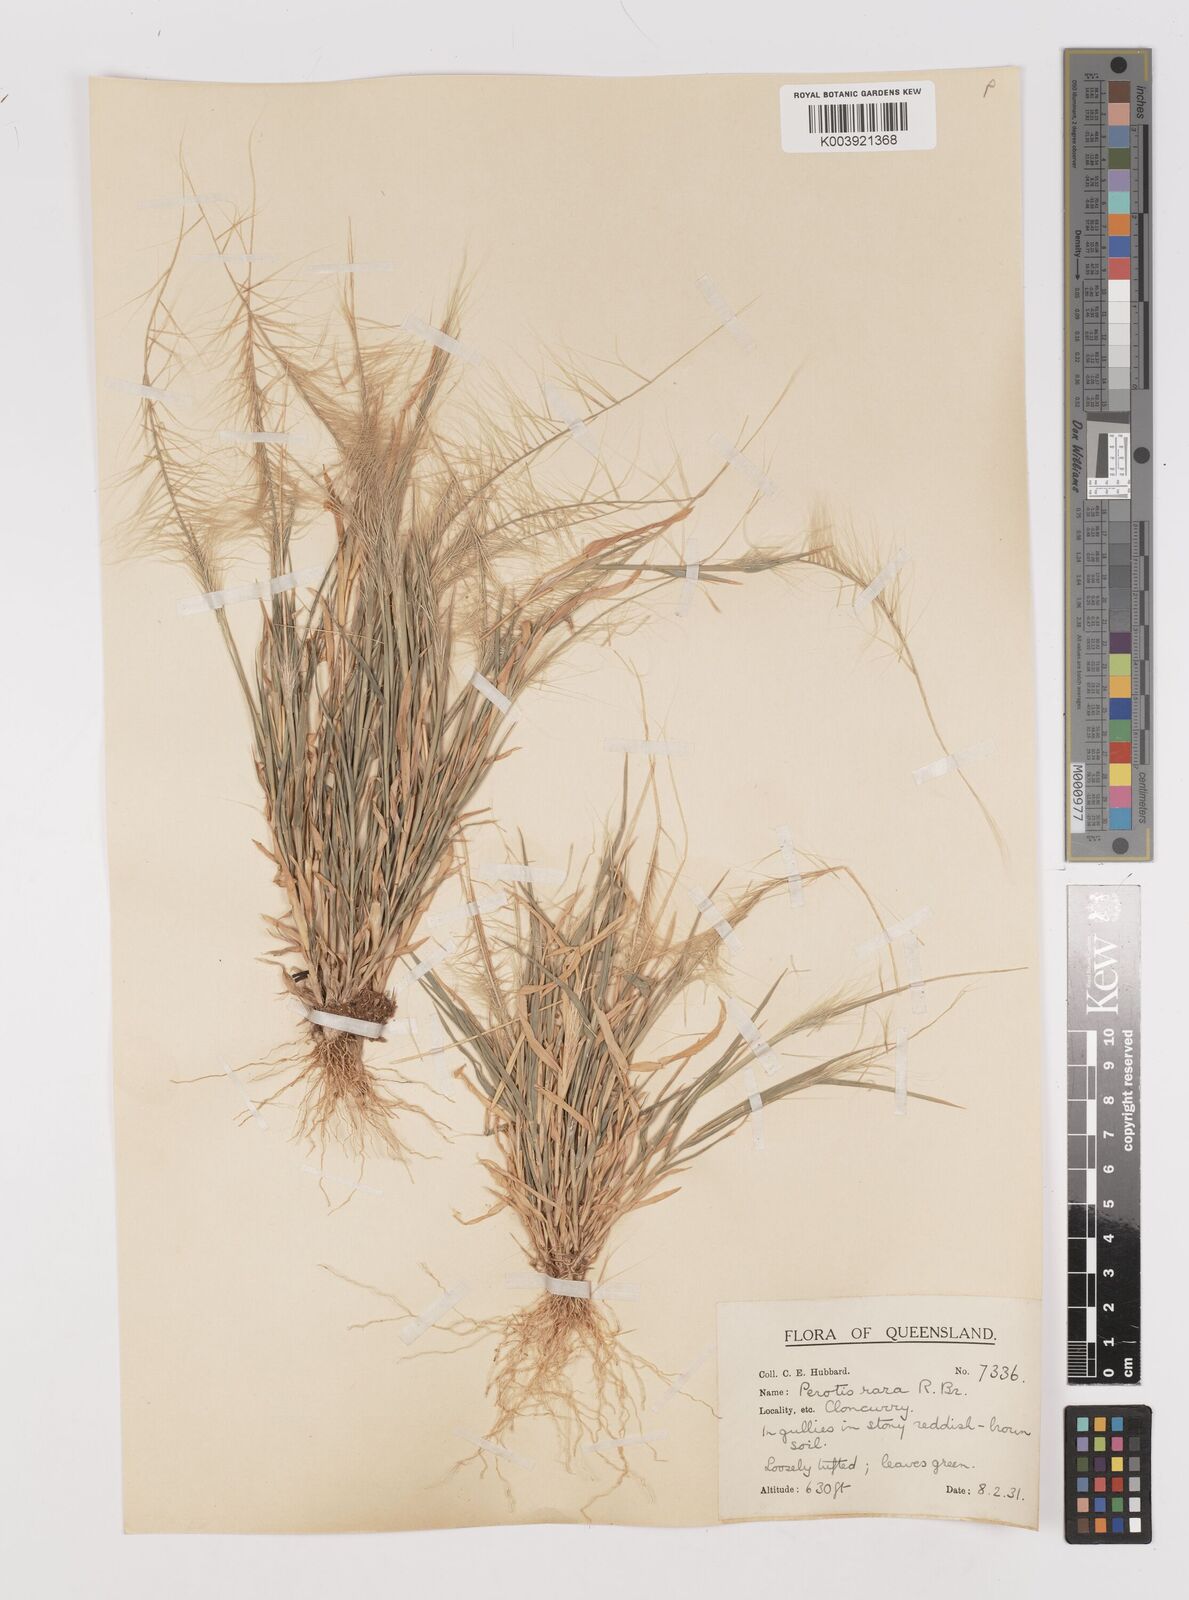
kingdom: Plantae
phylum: Tracheophyta
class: Liliopsida
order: Poales
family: Poaceae
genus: Perotis
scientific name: Perotis rara
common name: Comet grass
